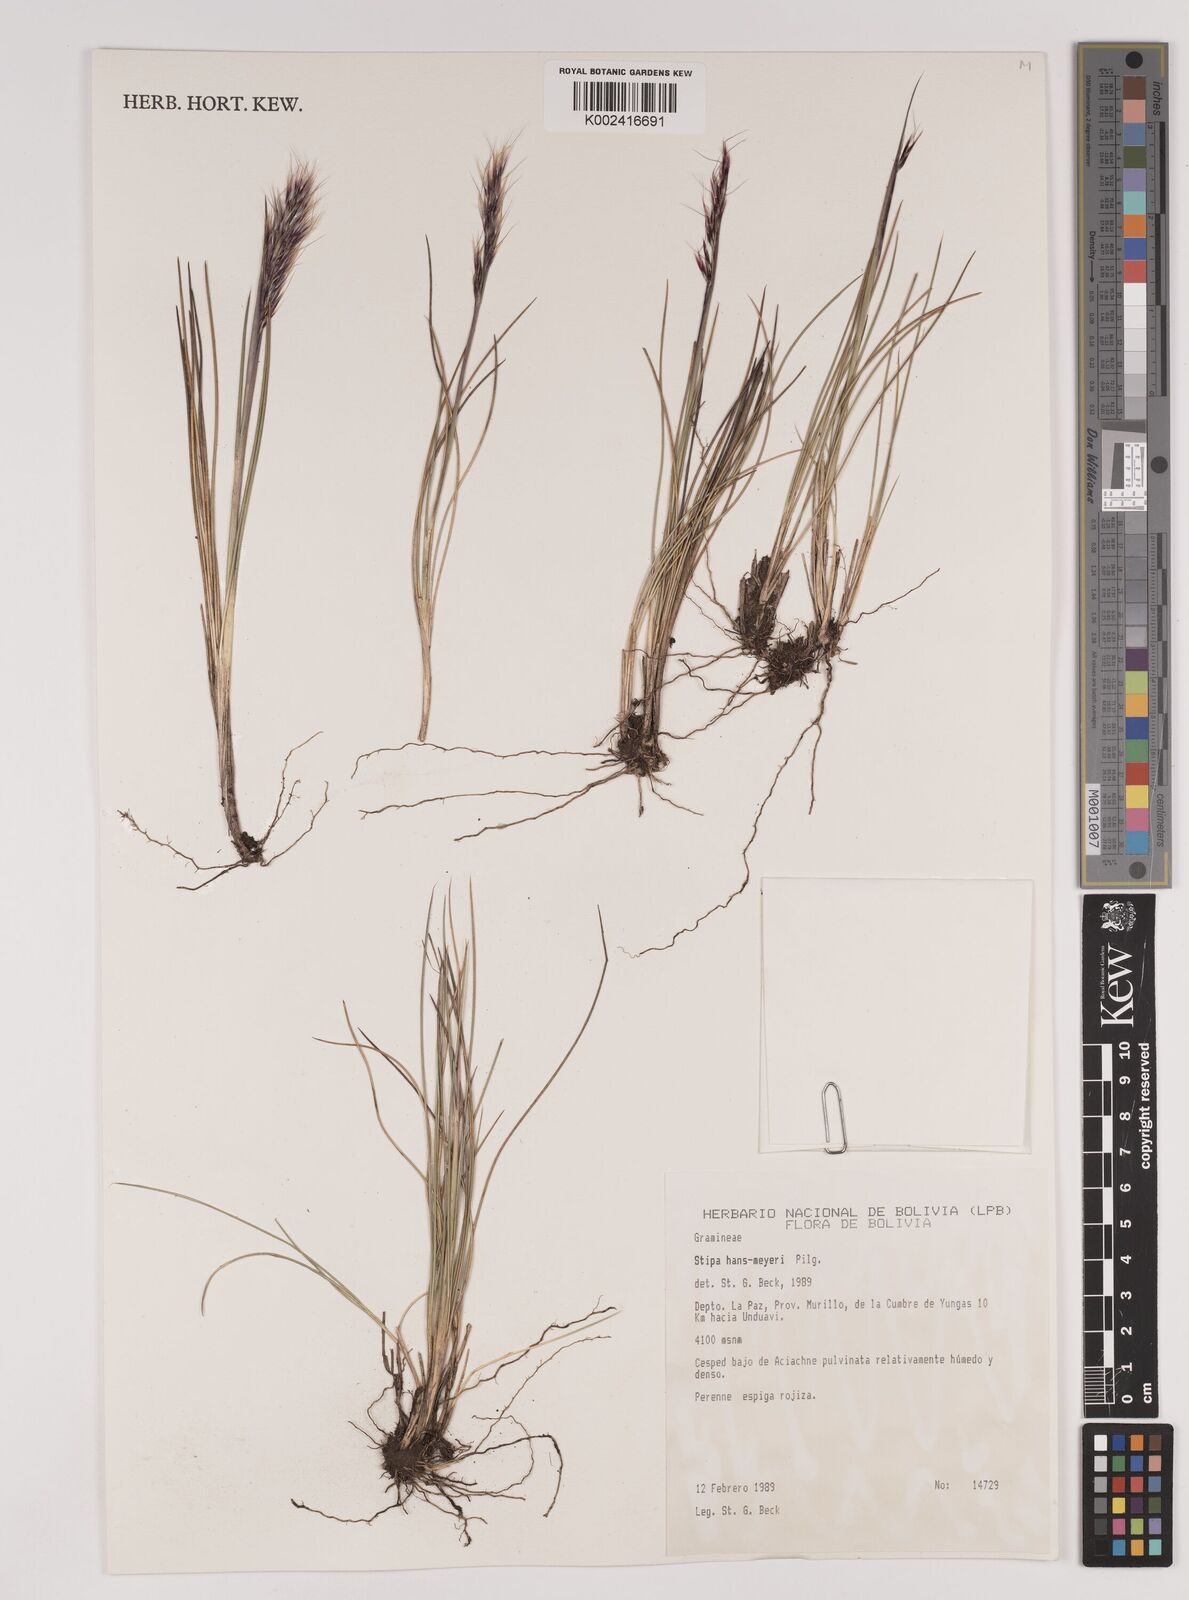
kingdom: Plantae
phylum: Tracheophyta
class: Liliopsida
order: Poales
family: Poaceae
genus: Stipa
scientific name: Stipa hans-meyeri
